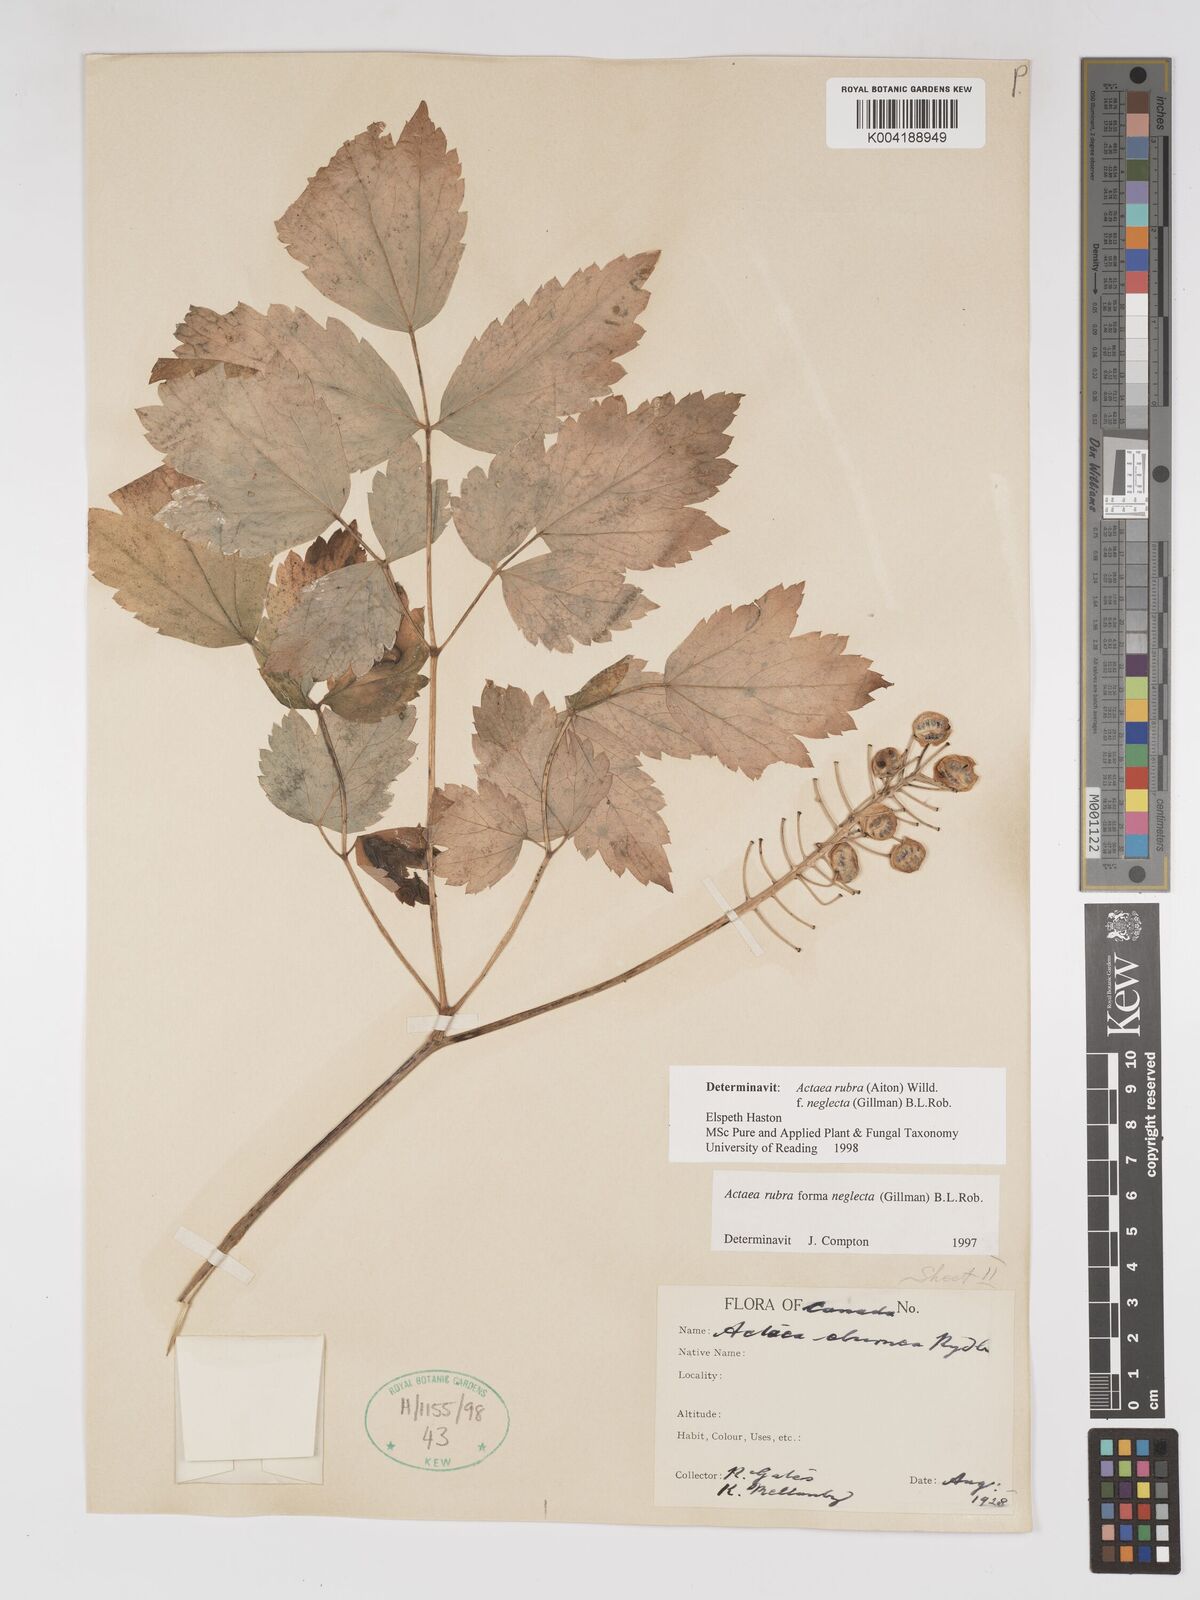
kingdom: Plantae
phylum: Tracheophyta
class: Magnoliopsida
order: Ranunculales
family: Ranunculaceae
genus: Actaea
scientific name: Actaea rubra
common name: Red baneberry
